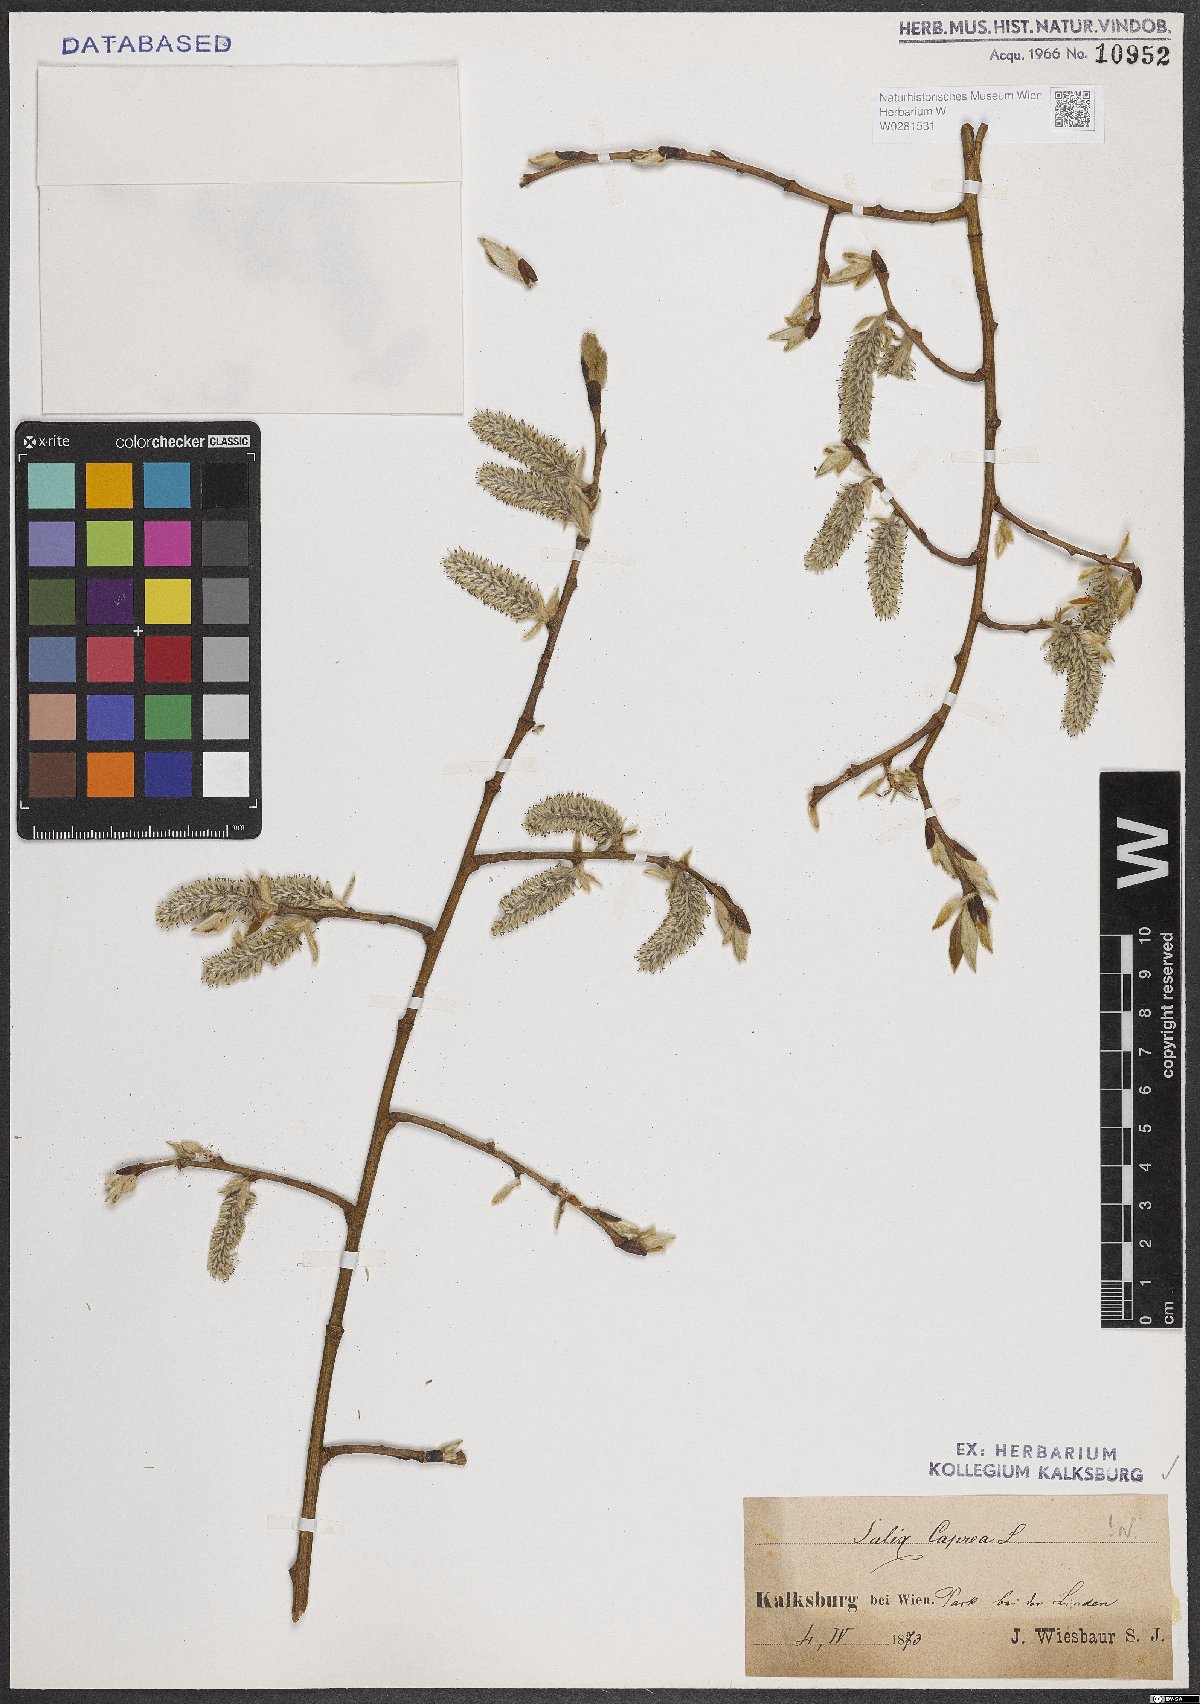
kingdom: Plantae
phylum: Tracheophyta
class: Magnoliopsida
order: Malpighiales
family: Salicaceae
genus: Salix
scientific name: Salix caprea
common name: Goat willow
